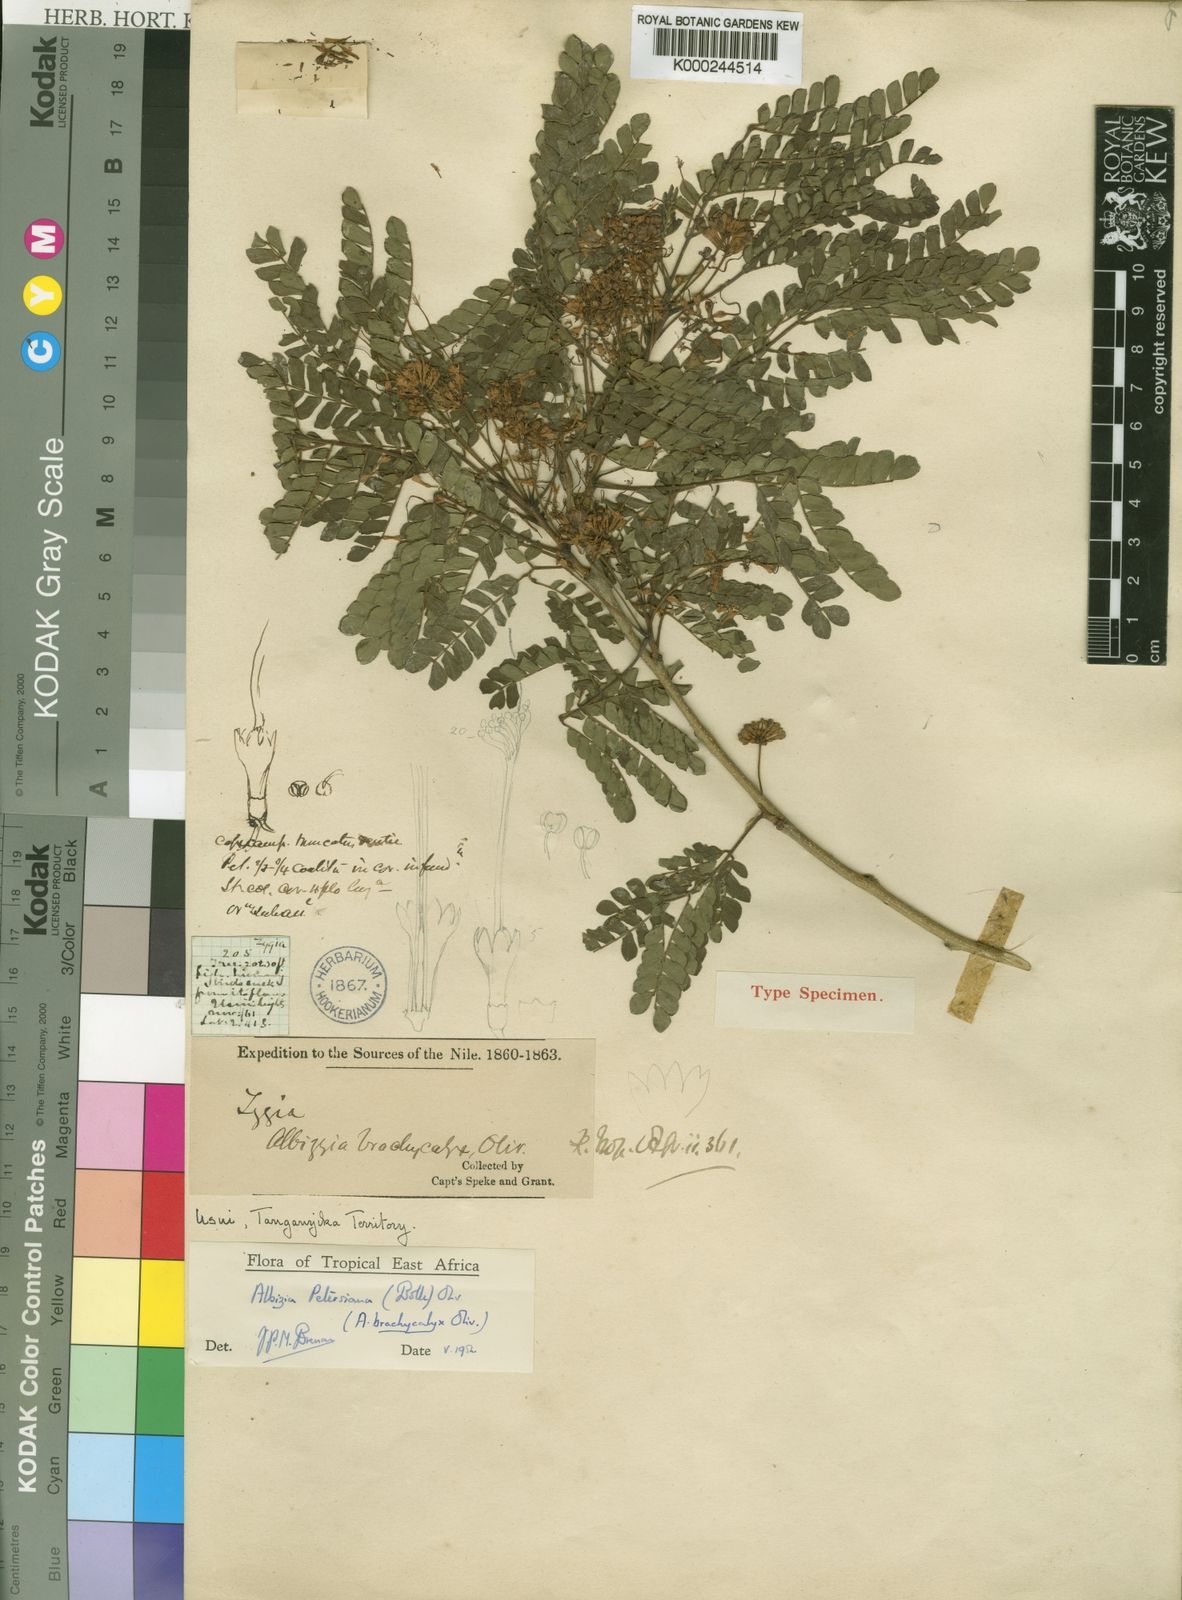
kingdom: Plantae
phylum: Tracheophyta
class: Magnoliopsida
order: Fabales
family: Fabaceae
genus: Albizia
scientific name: Albizia petersiana
